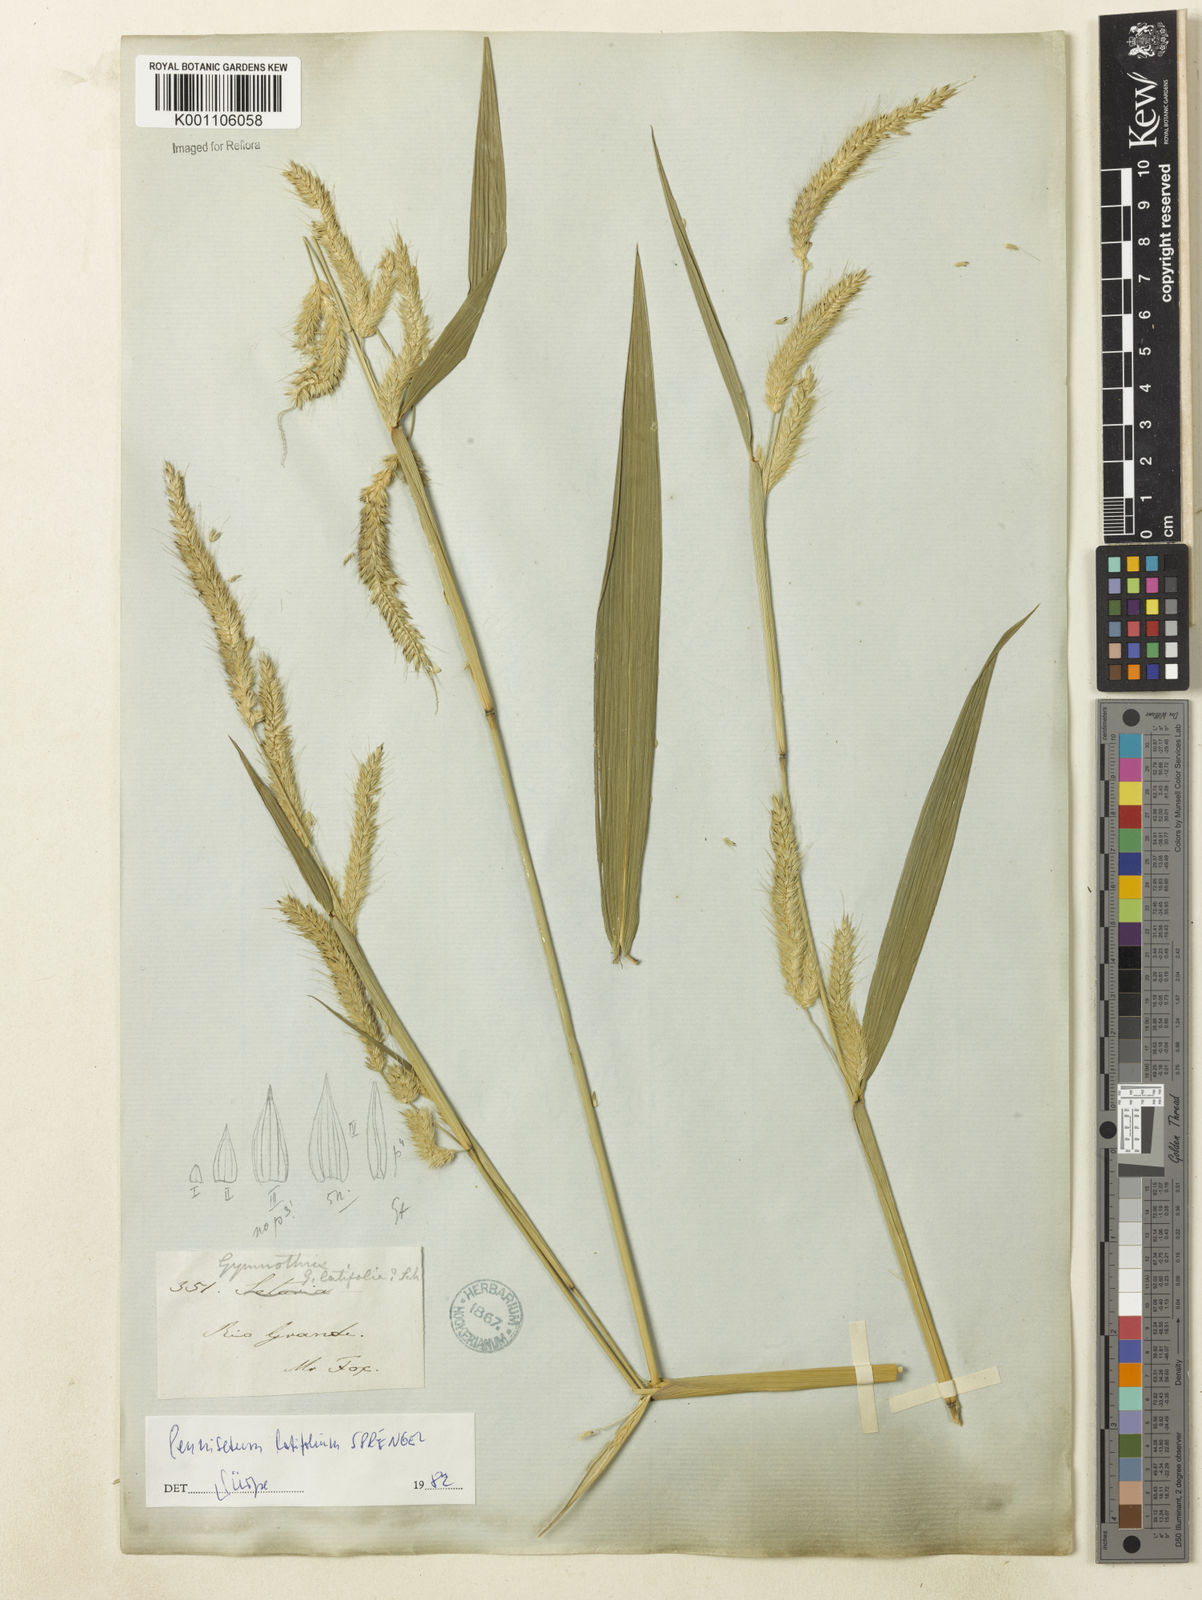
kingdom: Plantae
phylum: Tracheophyta
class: Liliopsida
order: Poales
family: Poaceae
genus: Cenchrus
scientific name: Cenchrus latifolius
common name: Sandbur
